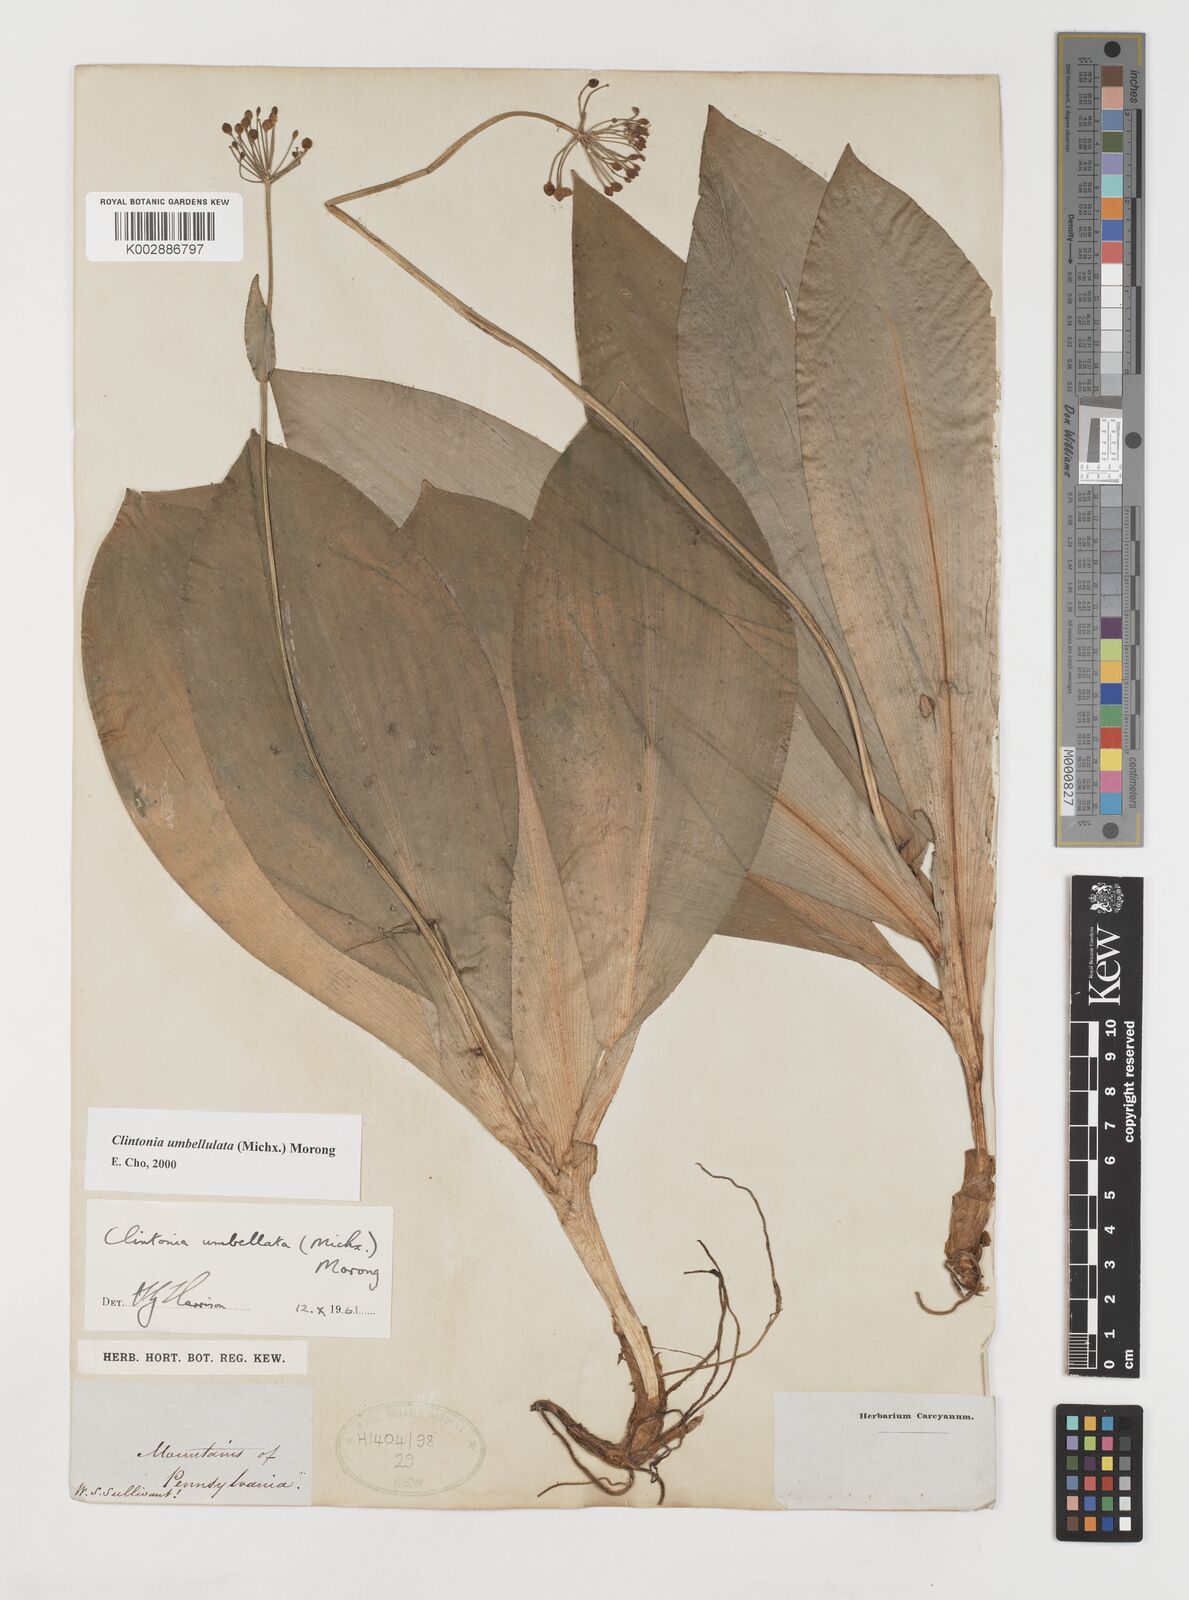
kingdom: Plantae
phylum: Tracheophyta
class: Liliopsida
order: Liliales
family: Liliaceae
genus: Clintonia
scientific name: Clintonia umbellulata
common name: Speckle wood-lily
